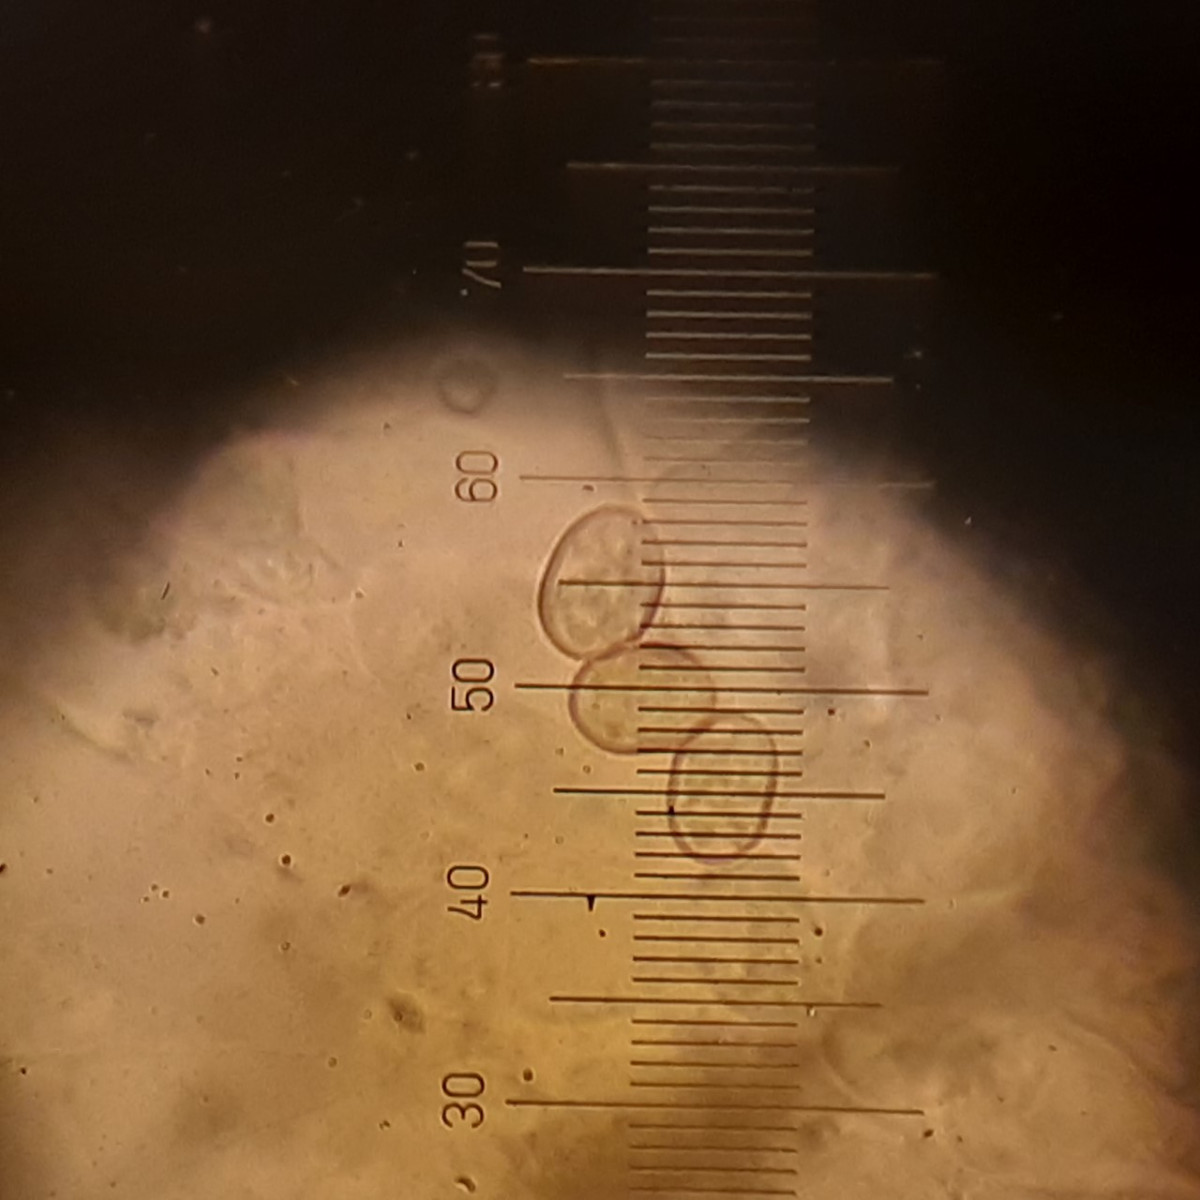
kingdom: Fungi
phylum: Basidiomycota
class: Agaricomycetes
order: Agaricales
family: Pluteaceae
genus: Pluteus
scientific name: Pluteus cervinus
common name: sodfarvet skærmhat
